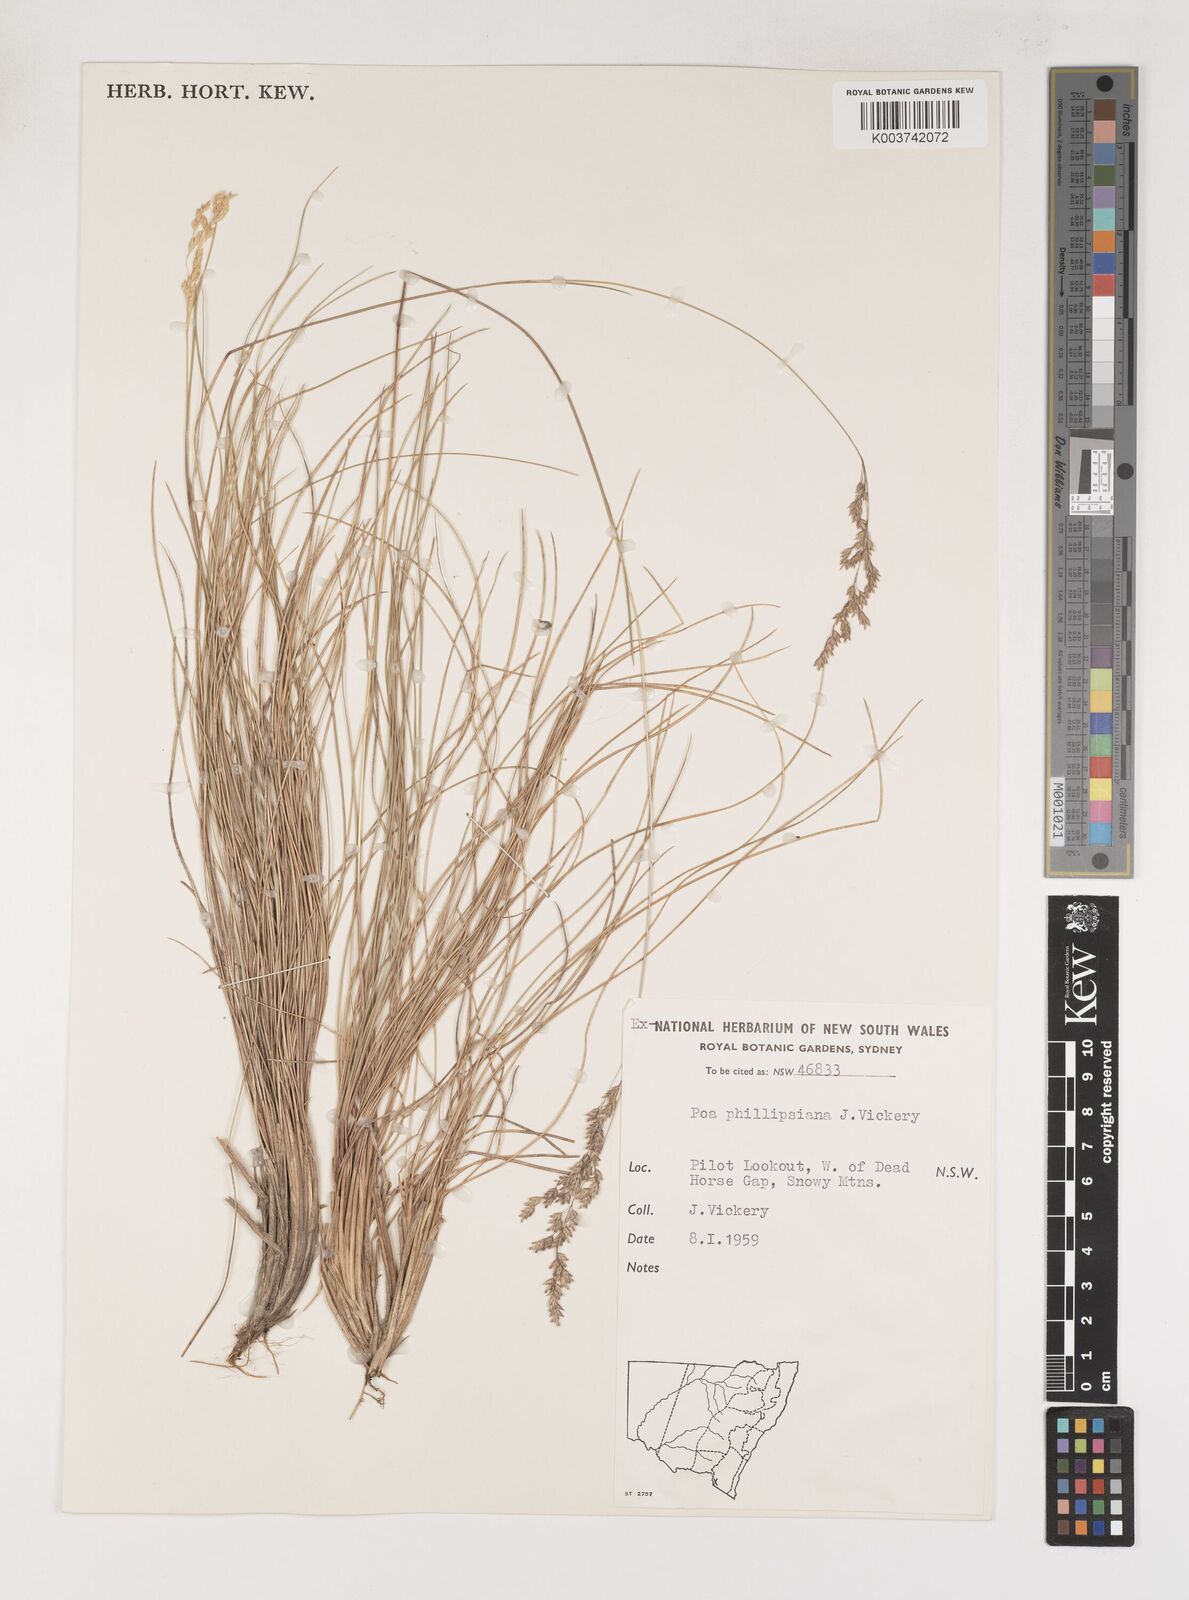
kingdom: Plantae
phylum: Tracheophyta
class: Liliopsida
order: Poales
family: Poaceae
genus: Poa
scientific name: Poa phillipsiana
